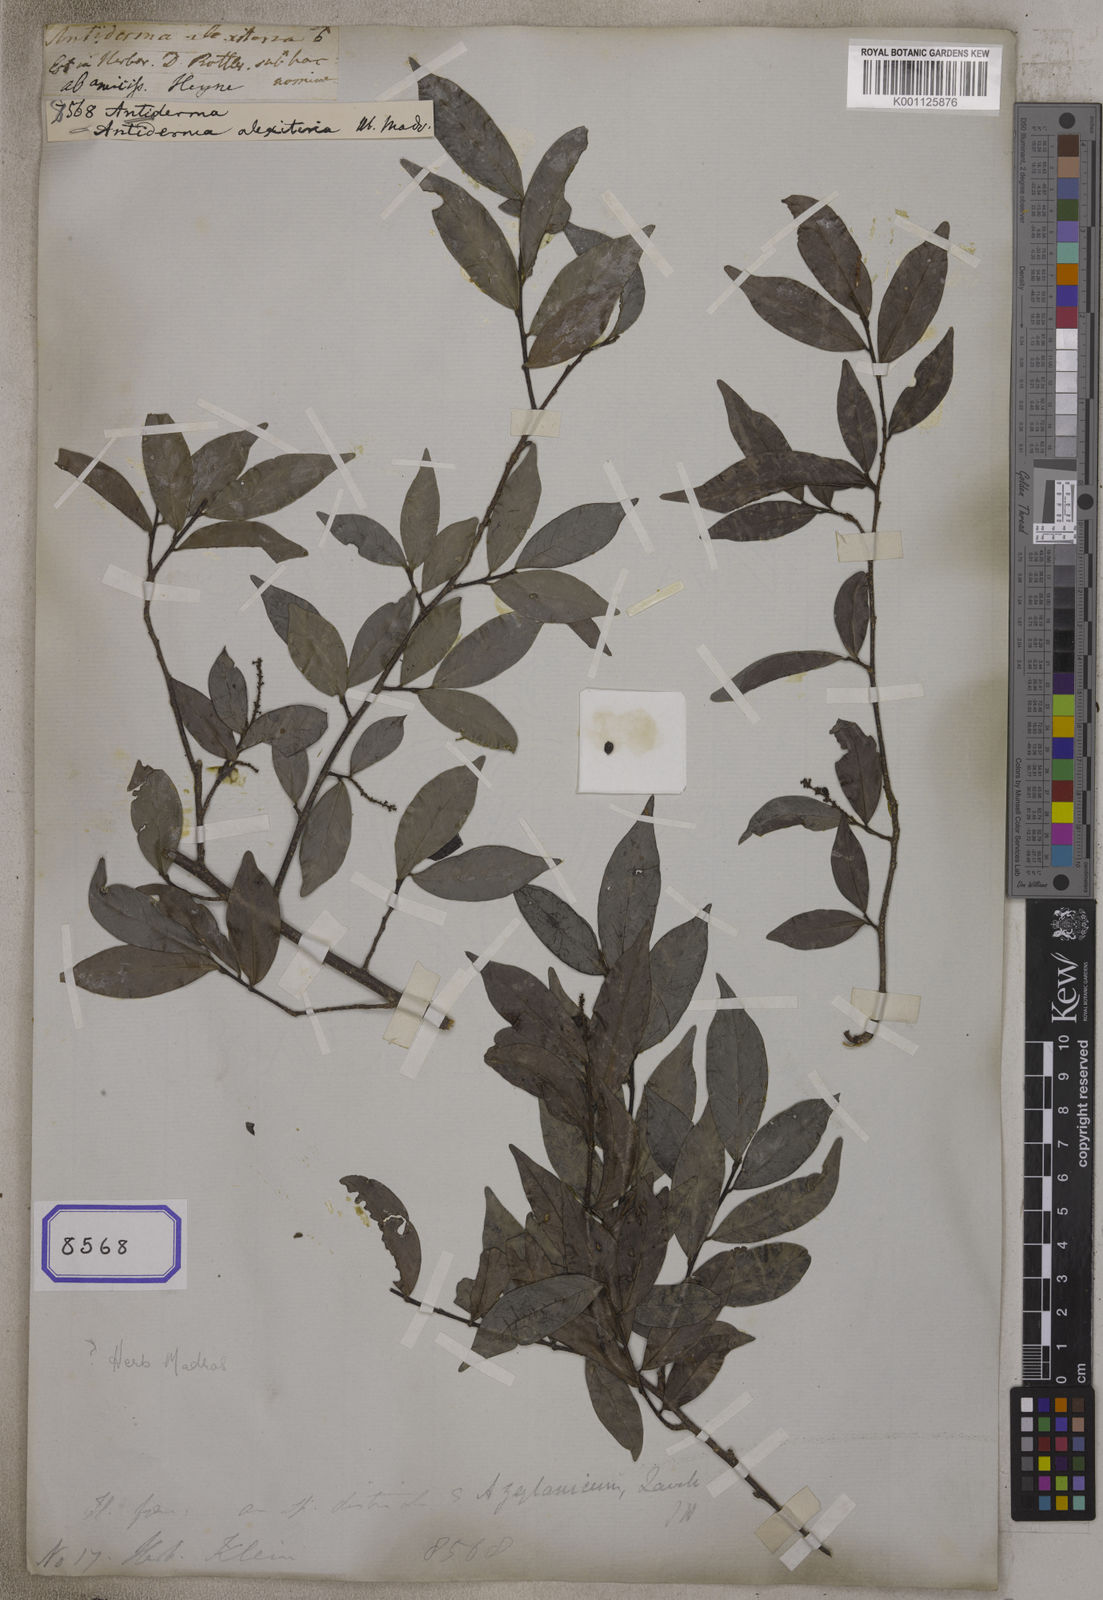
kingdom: Plantae
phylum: Tracheophyta
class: Magnoliopsida
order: Malpighiales
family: Phyllanthaceae
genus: Antidesma
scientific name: Antidesma
